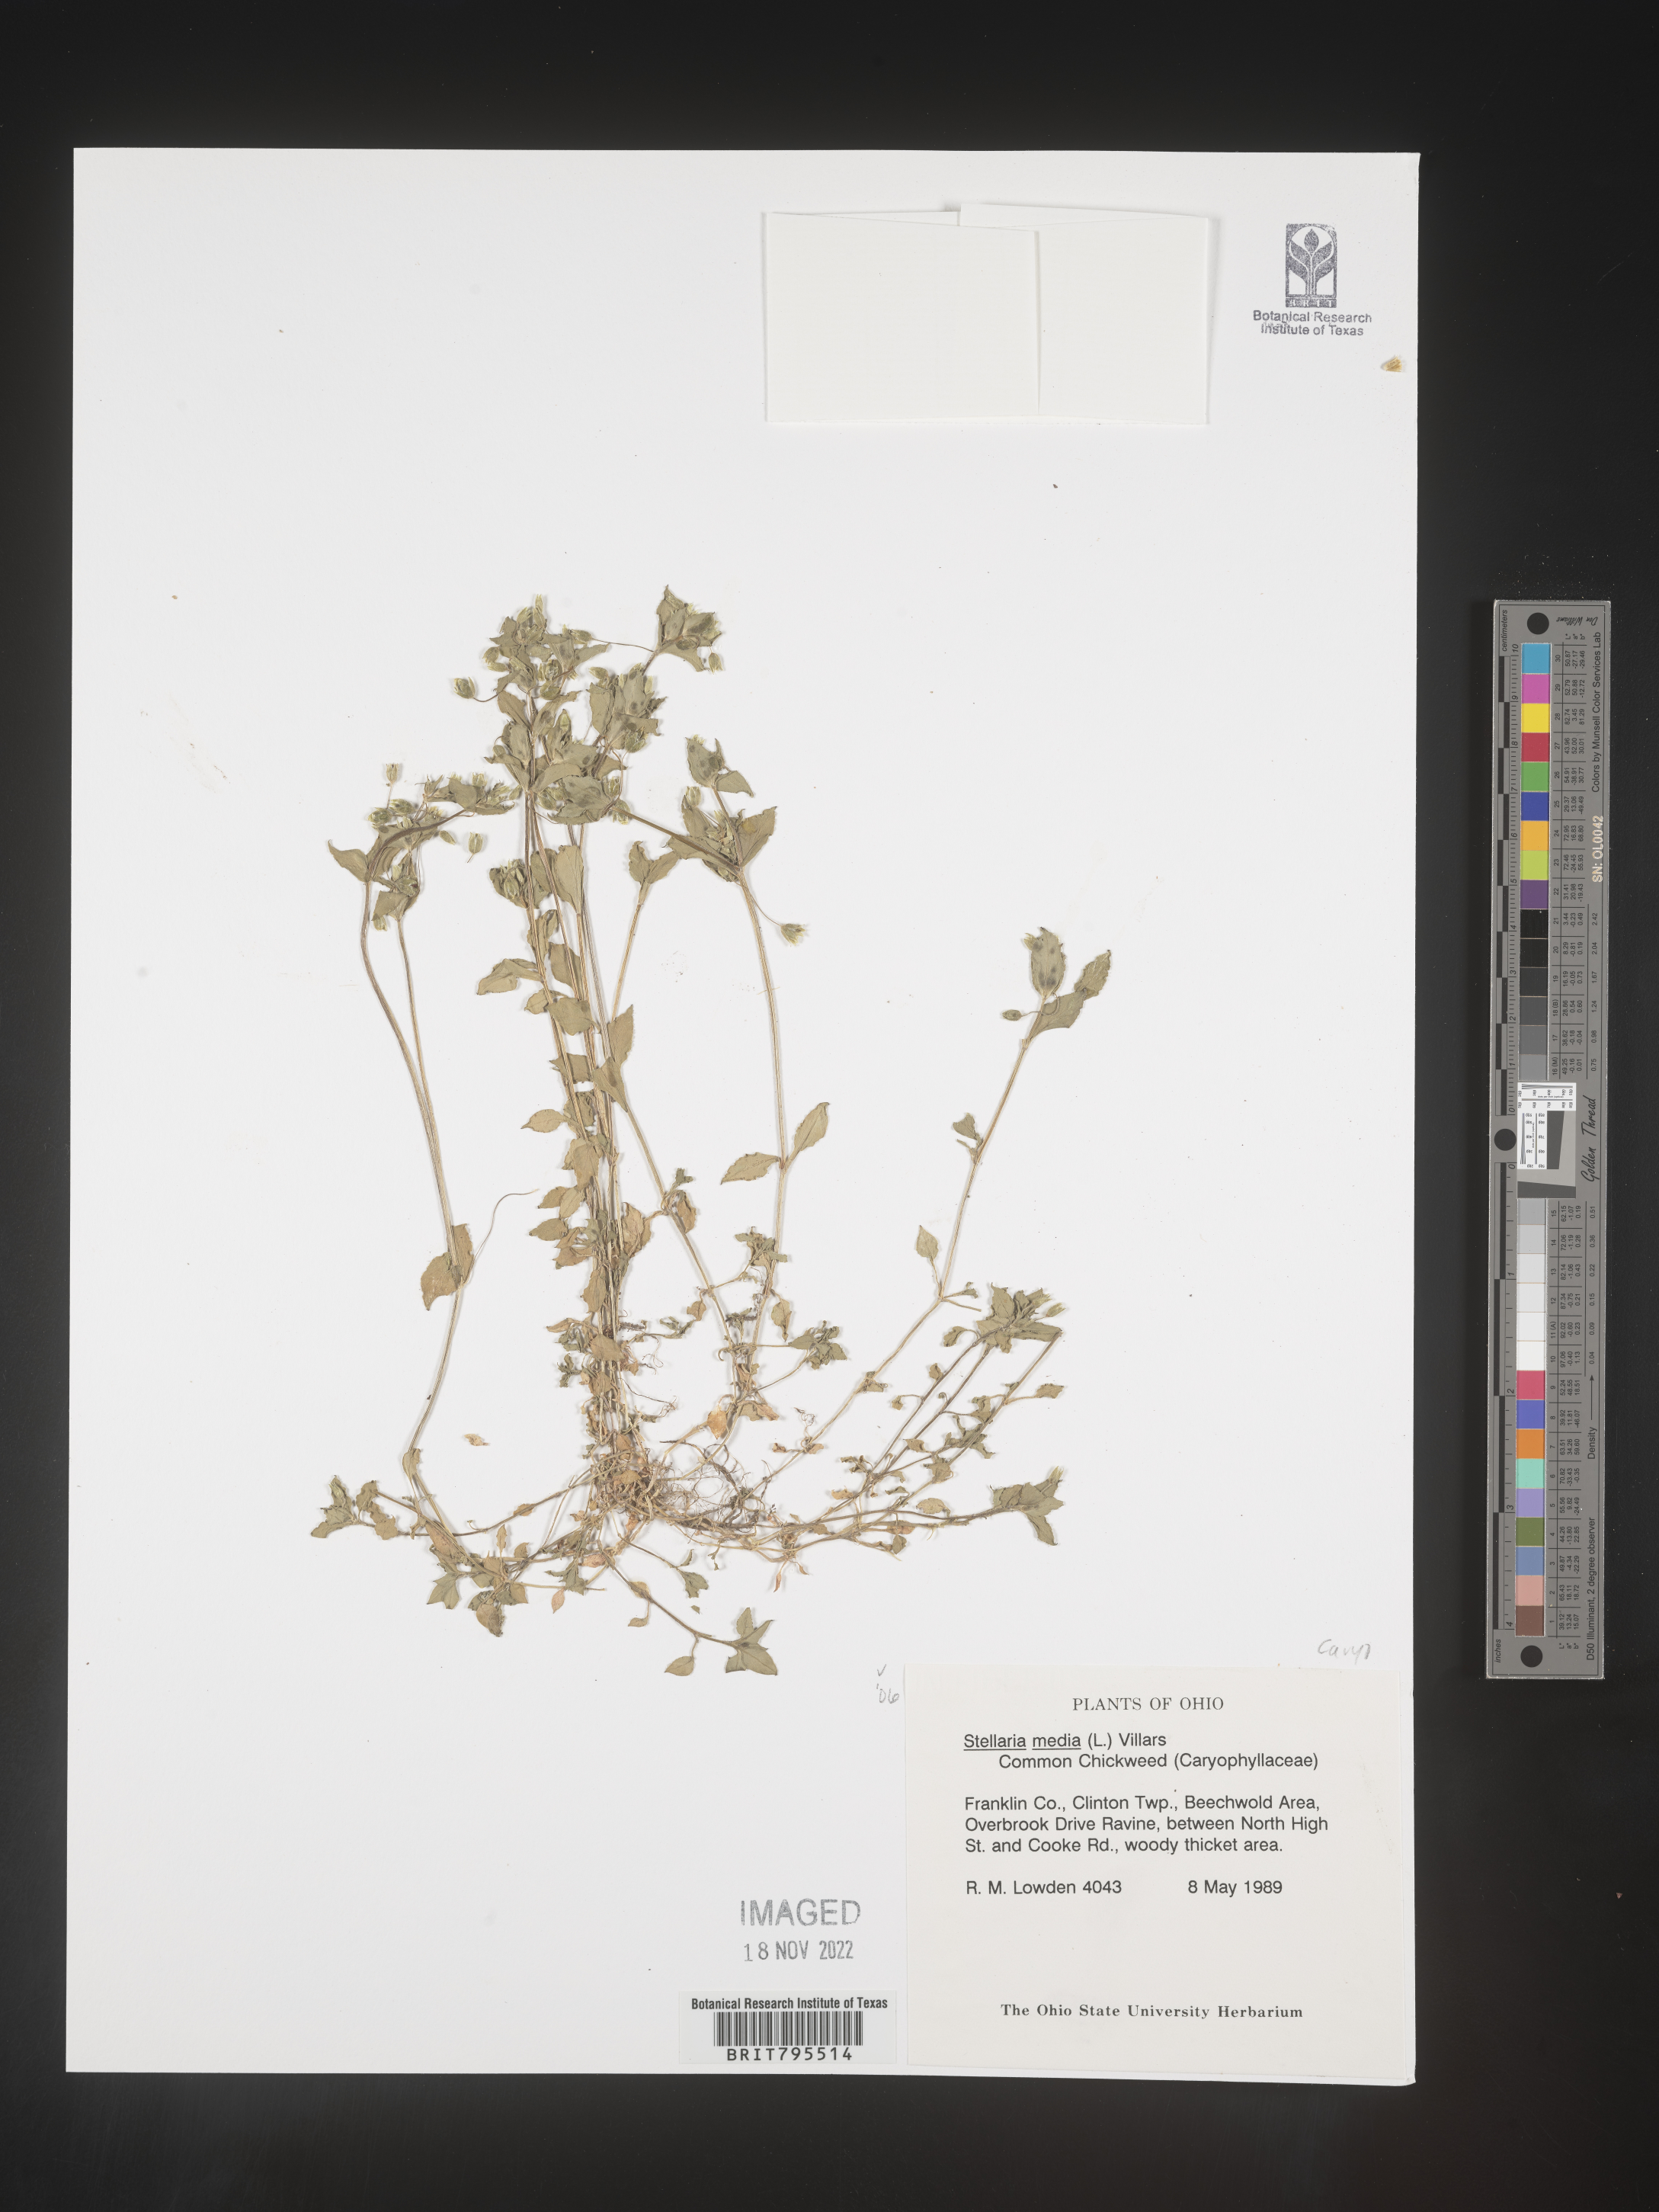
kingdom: Plantae
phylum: Tracheophyta
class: Magnoliopsida
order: Caryophyllales
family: Caryophyllaceae
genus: Stellaria
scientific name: Stellaria media
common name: Common chickweed
